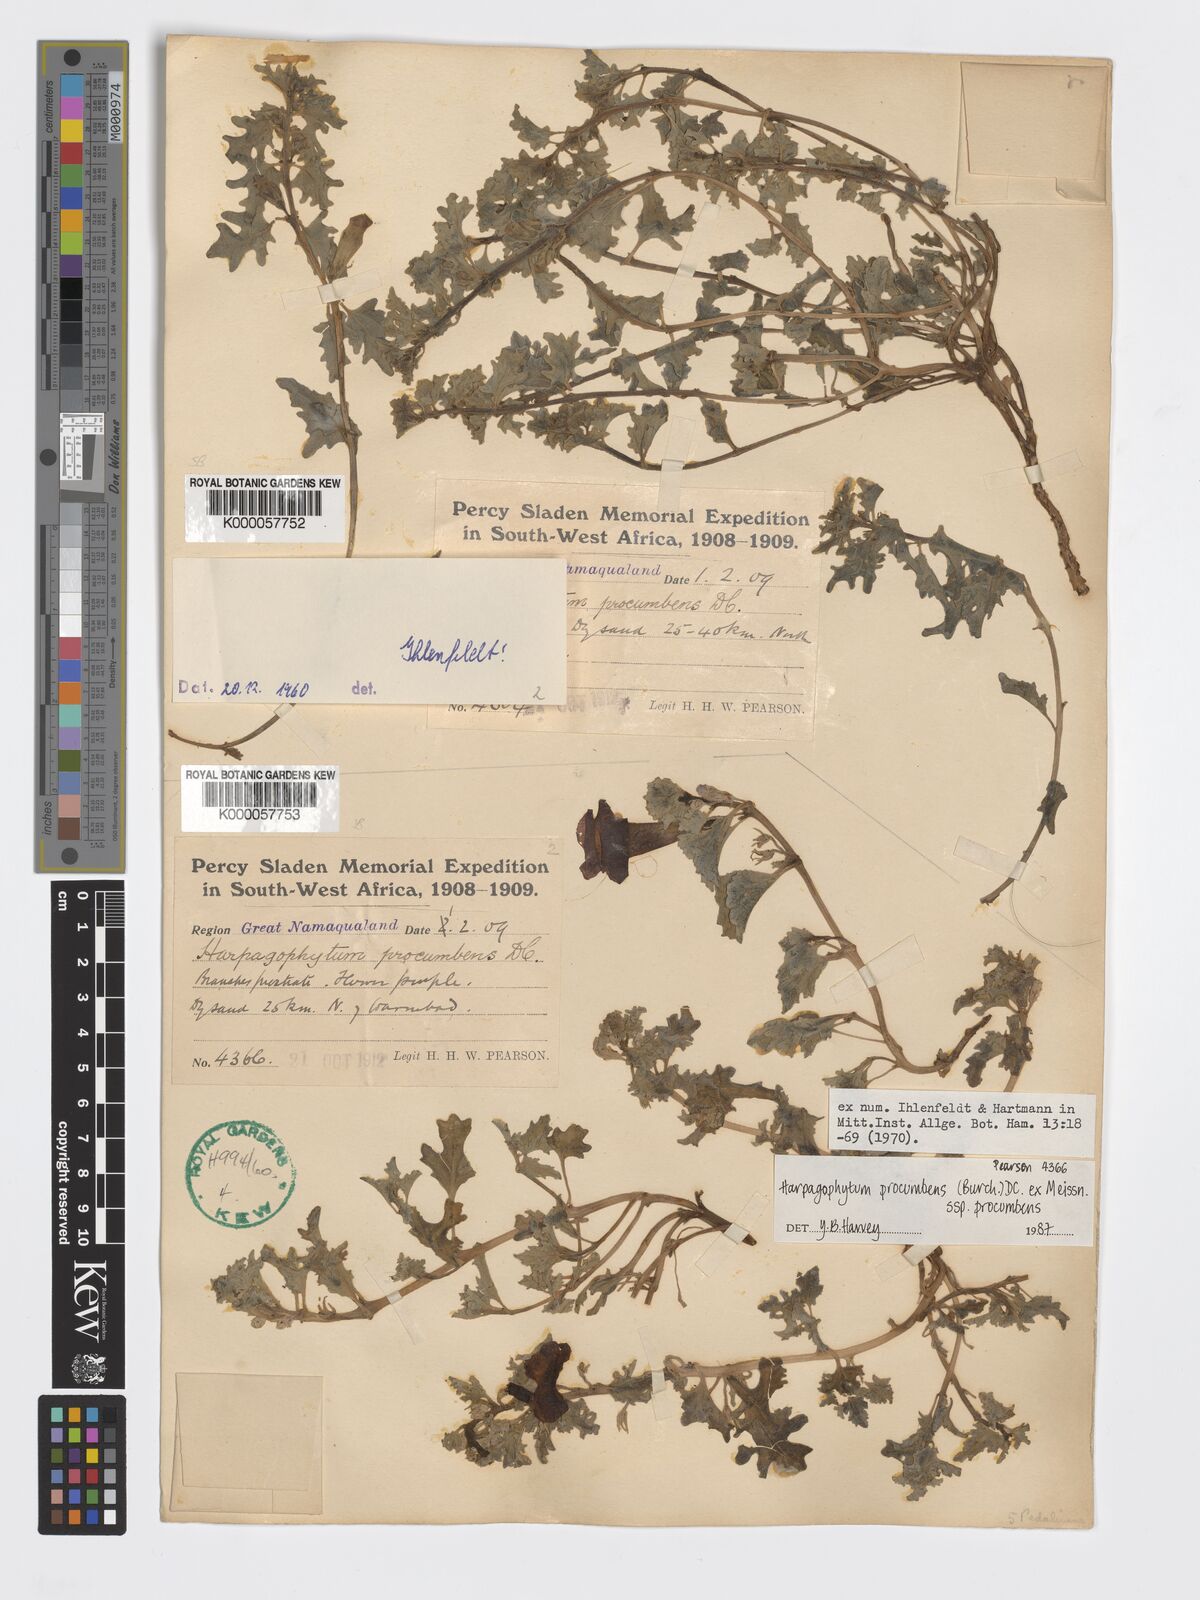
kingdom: Plantae
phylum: Tracheophyta
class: Magnoliopsida
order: Lamiales
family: Pedaliaceae
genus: Harpagophytum
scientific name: Harpagophytum procumbens
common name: Grappleplant
